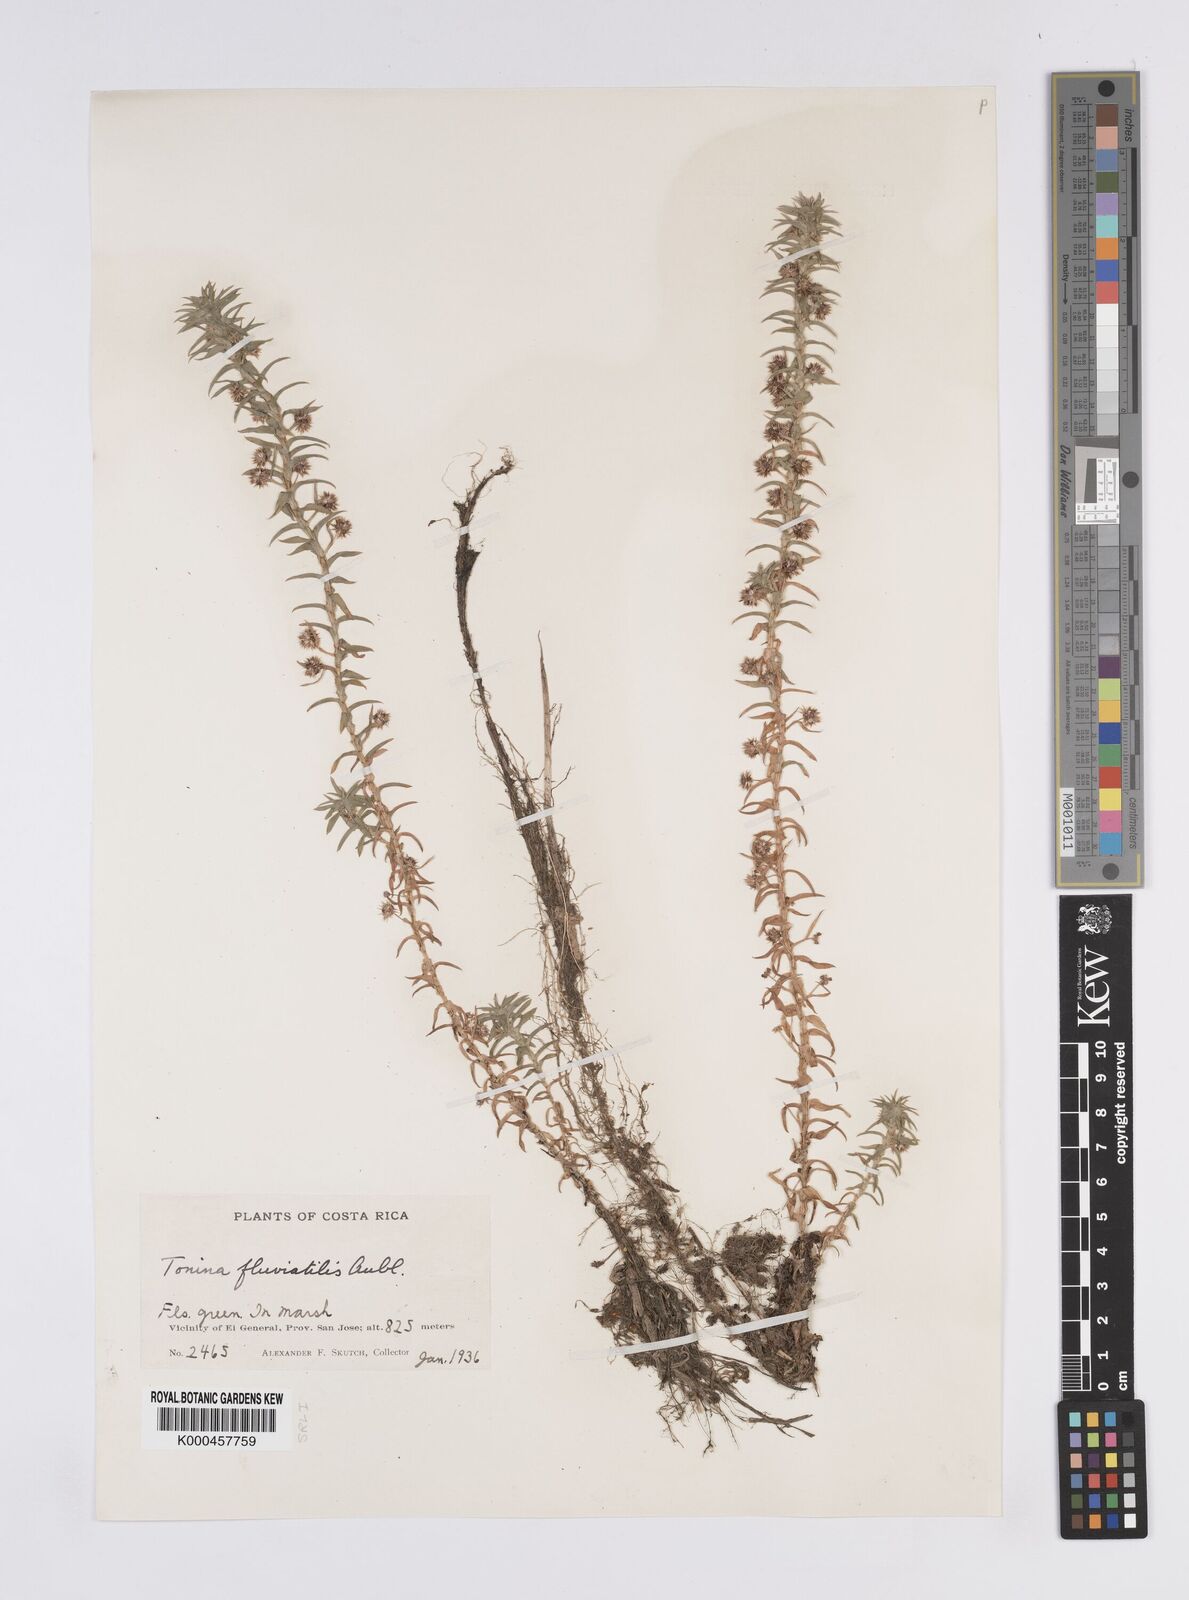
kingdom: Plantae
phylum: Tracheophyta
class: Liliopsida
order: Poales
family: Eriocaulaceae
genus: Paepalanthus
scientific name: Paepalanthus fluviatilis
